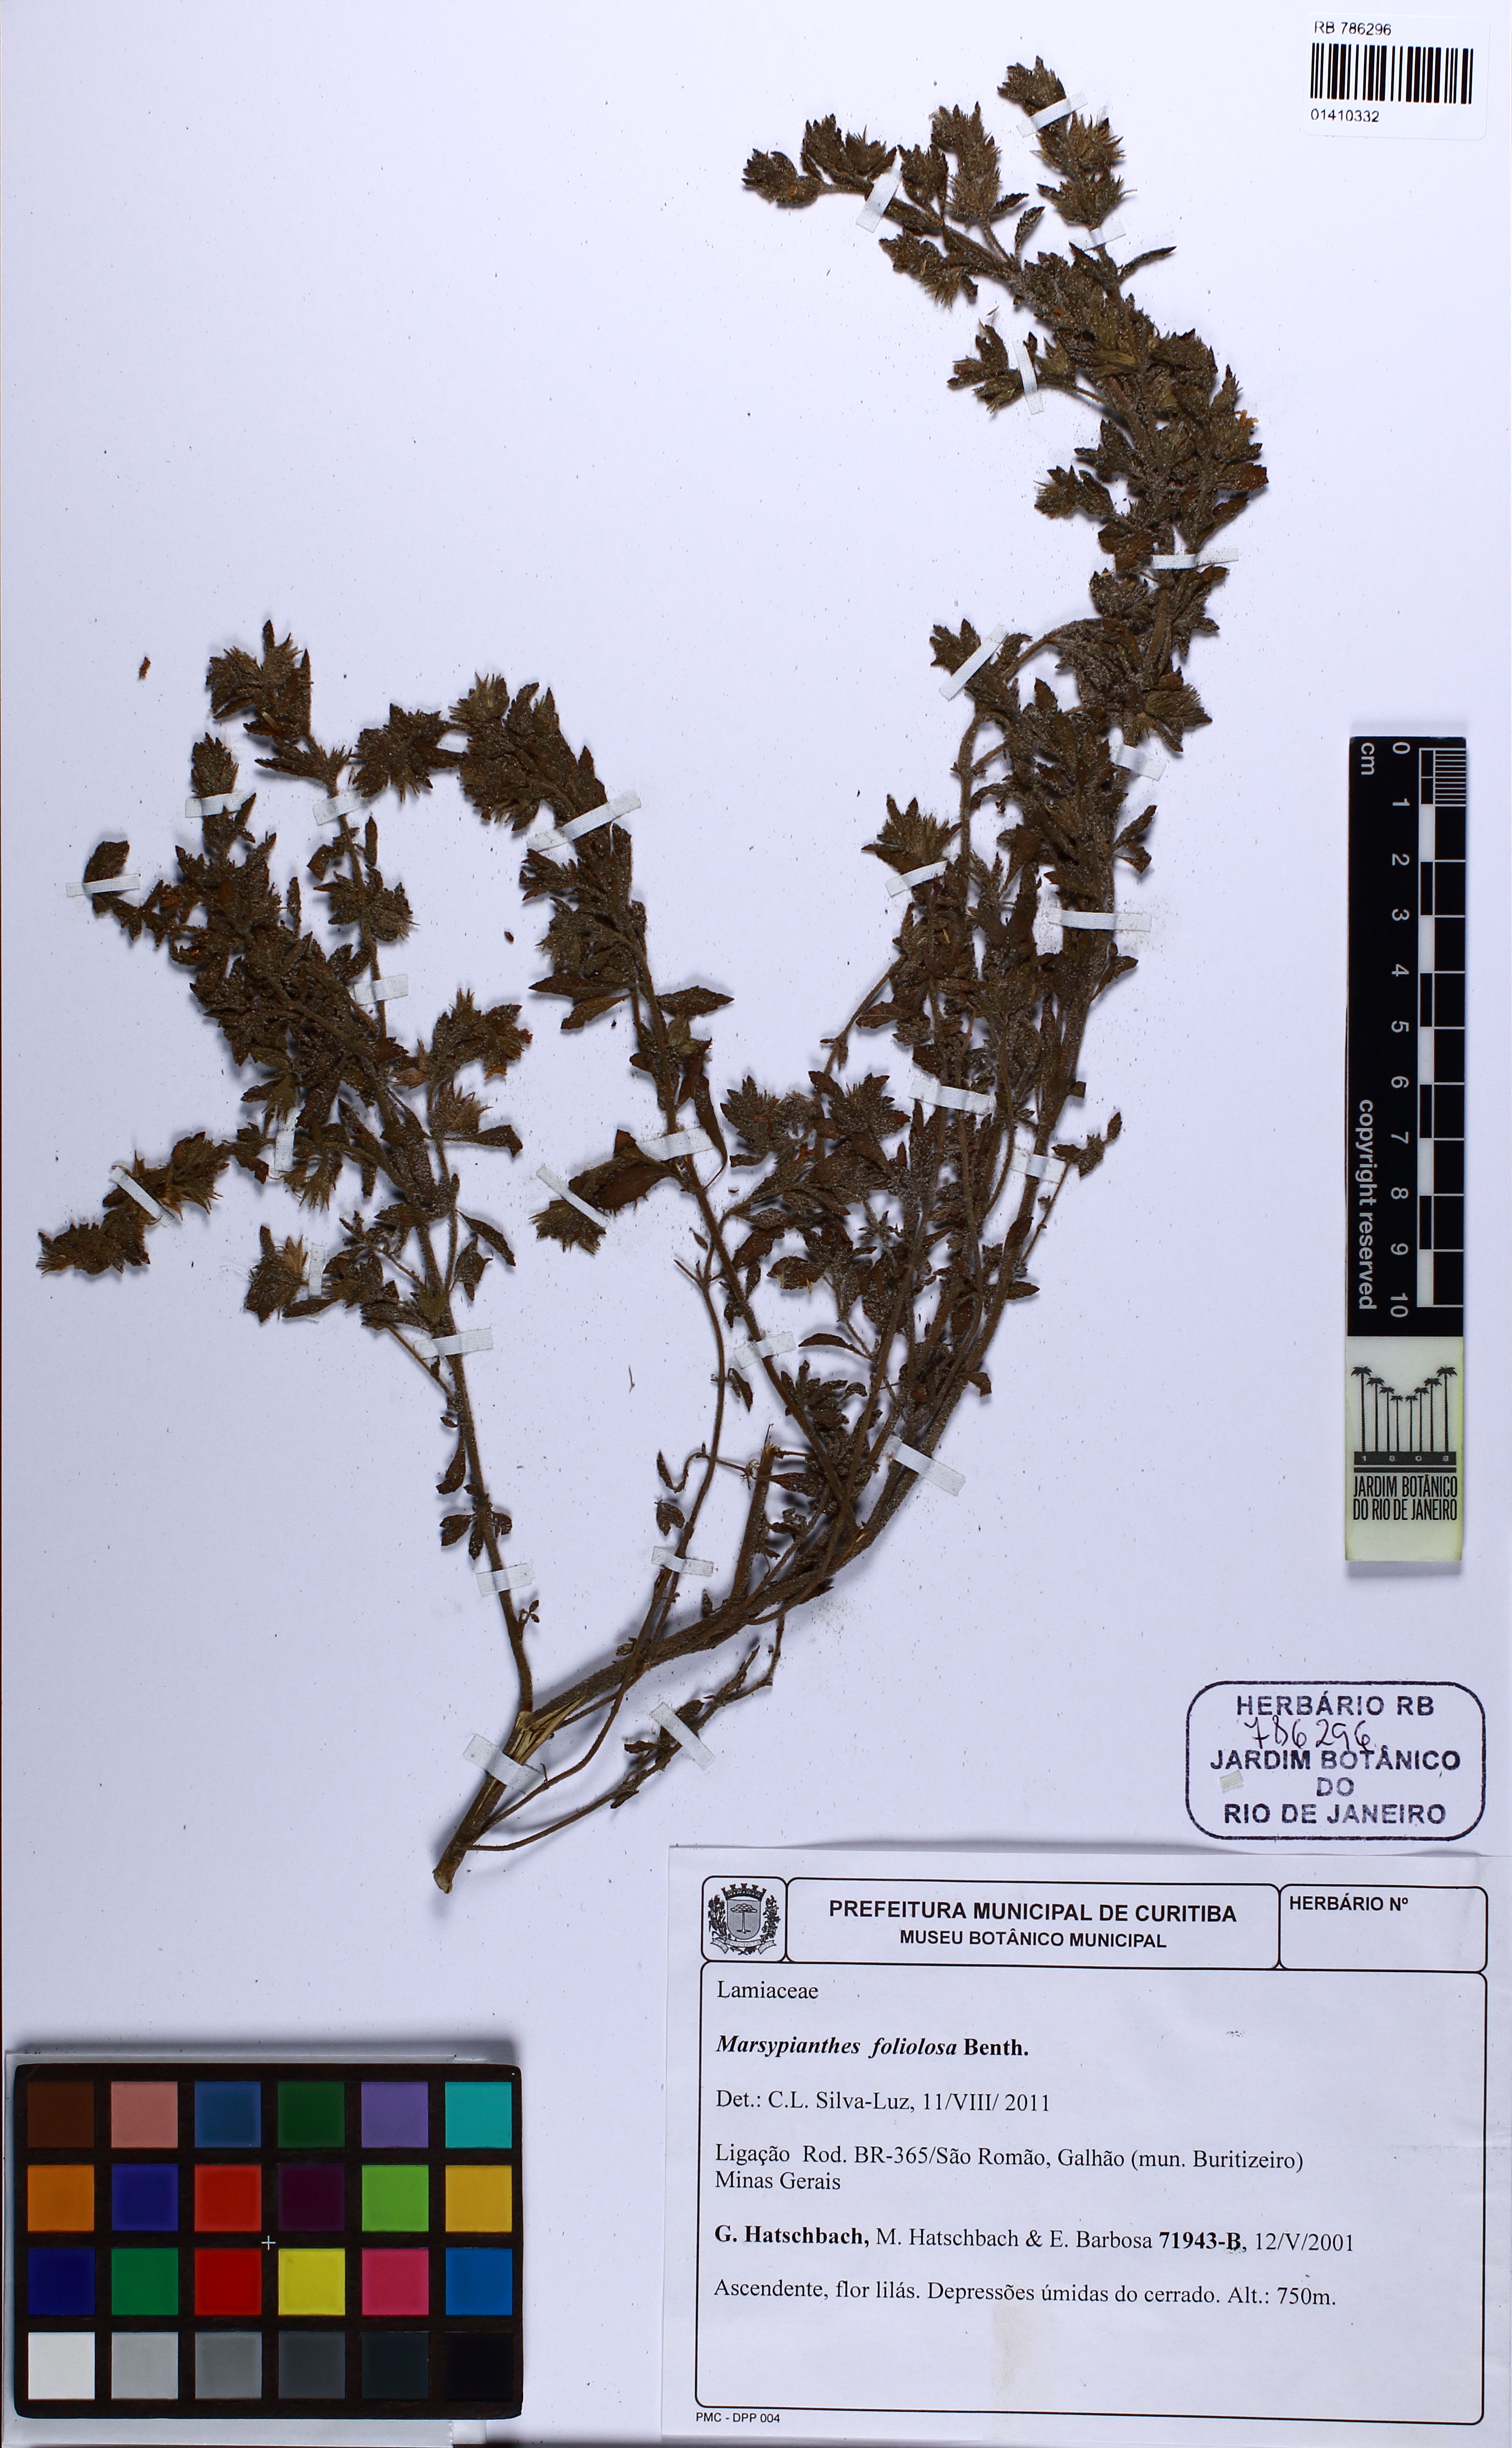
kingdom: Plantae
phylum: Tracheophyta
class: Magnoliopsida
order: Lamiales
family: Lamiaceae
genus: Marsypianthes
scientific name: Marsypianthes foliolosa
